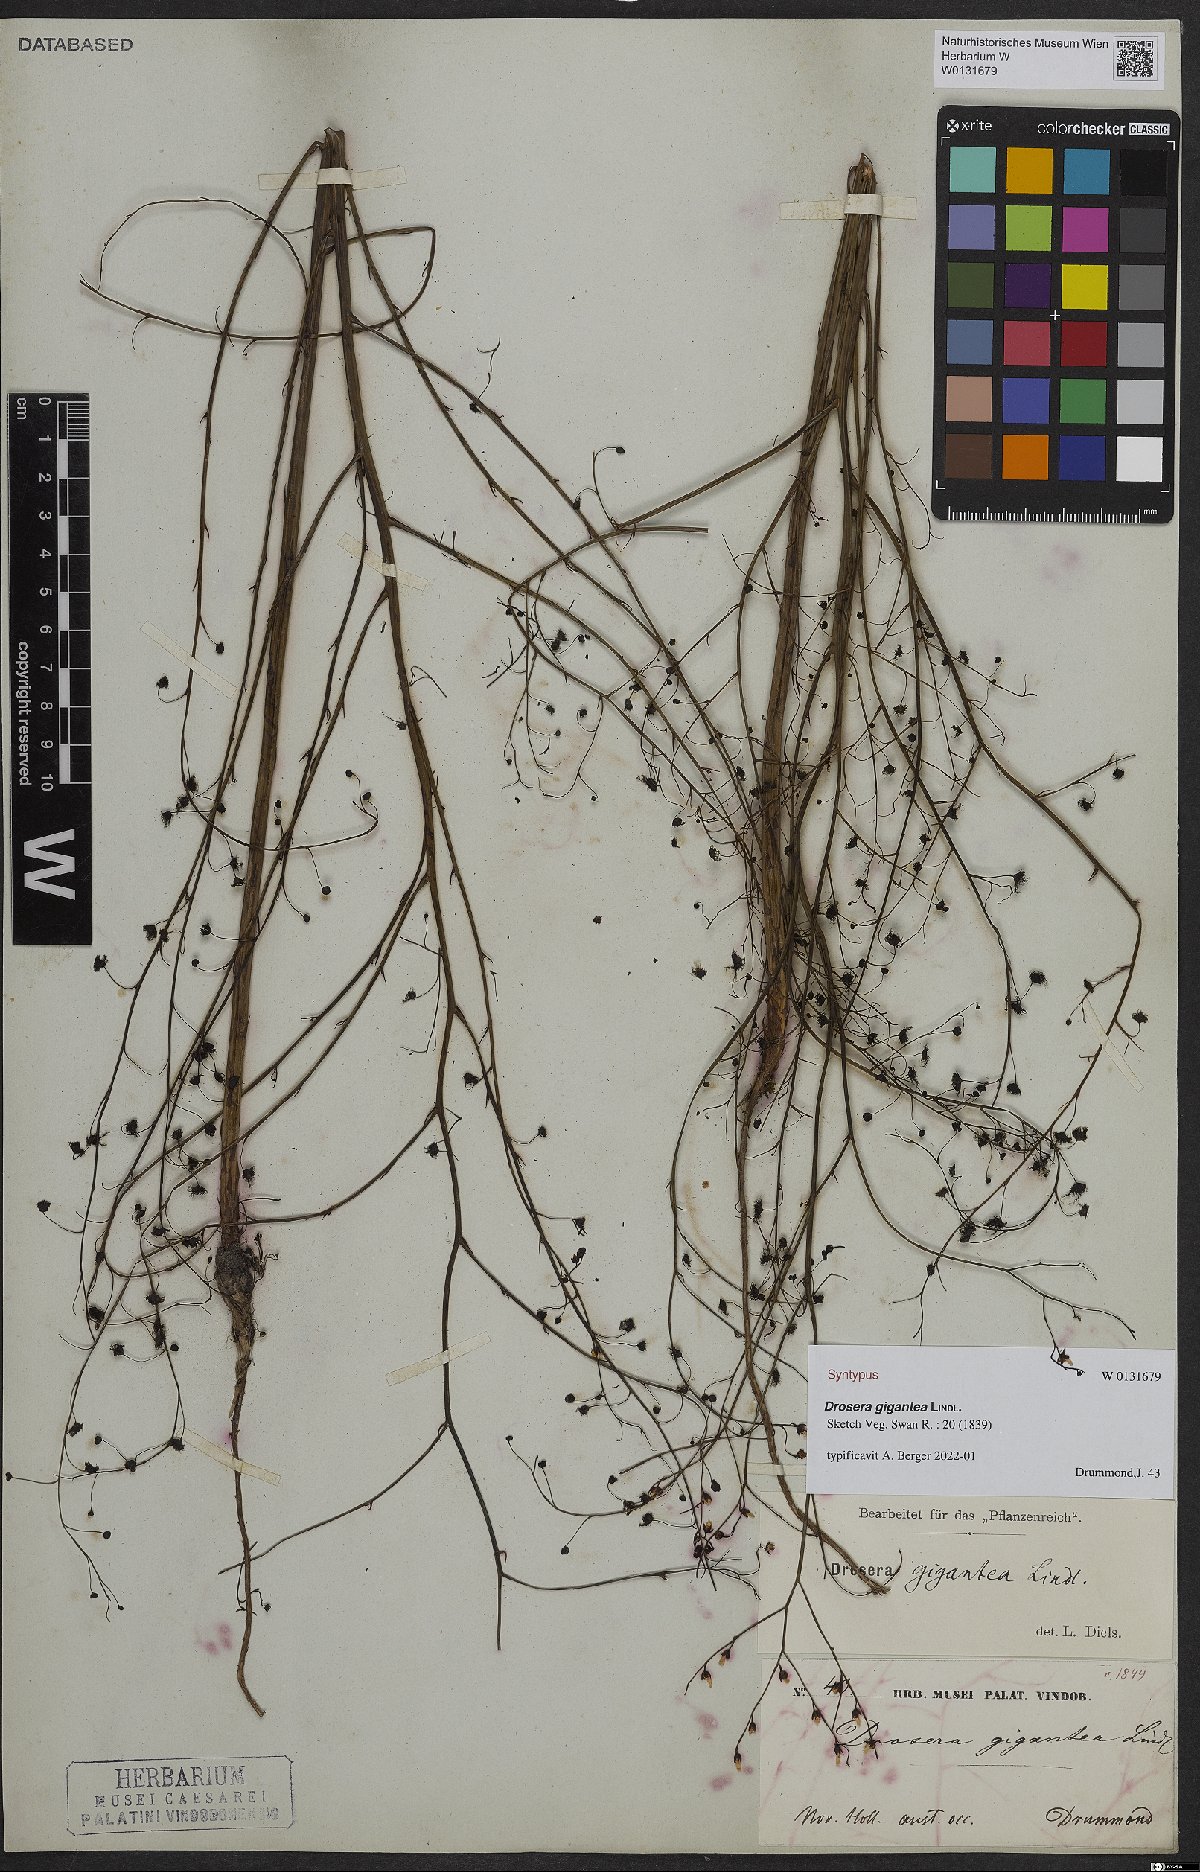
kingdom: Plantae
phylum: Tracheophyta
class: Magnoliopsida
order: Caryophyllales
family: Droseraceae
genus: Drosera
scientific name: Drosera gigantea
